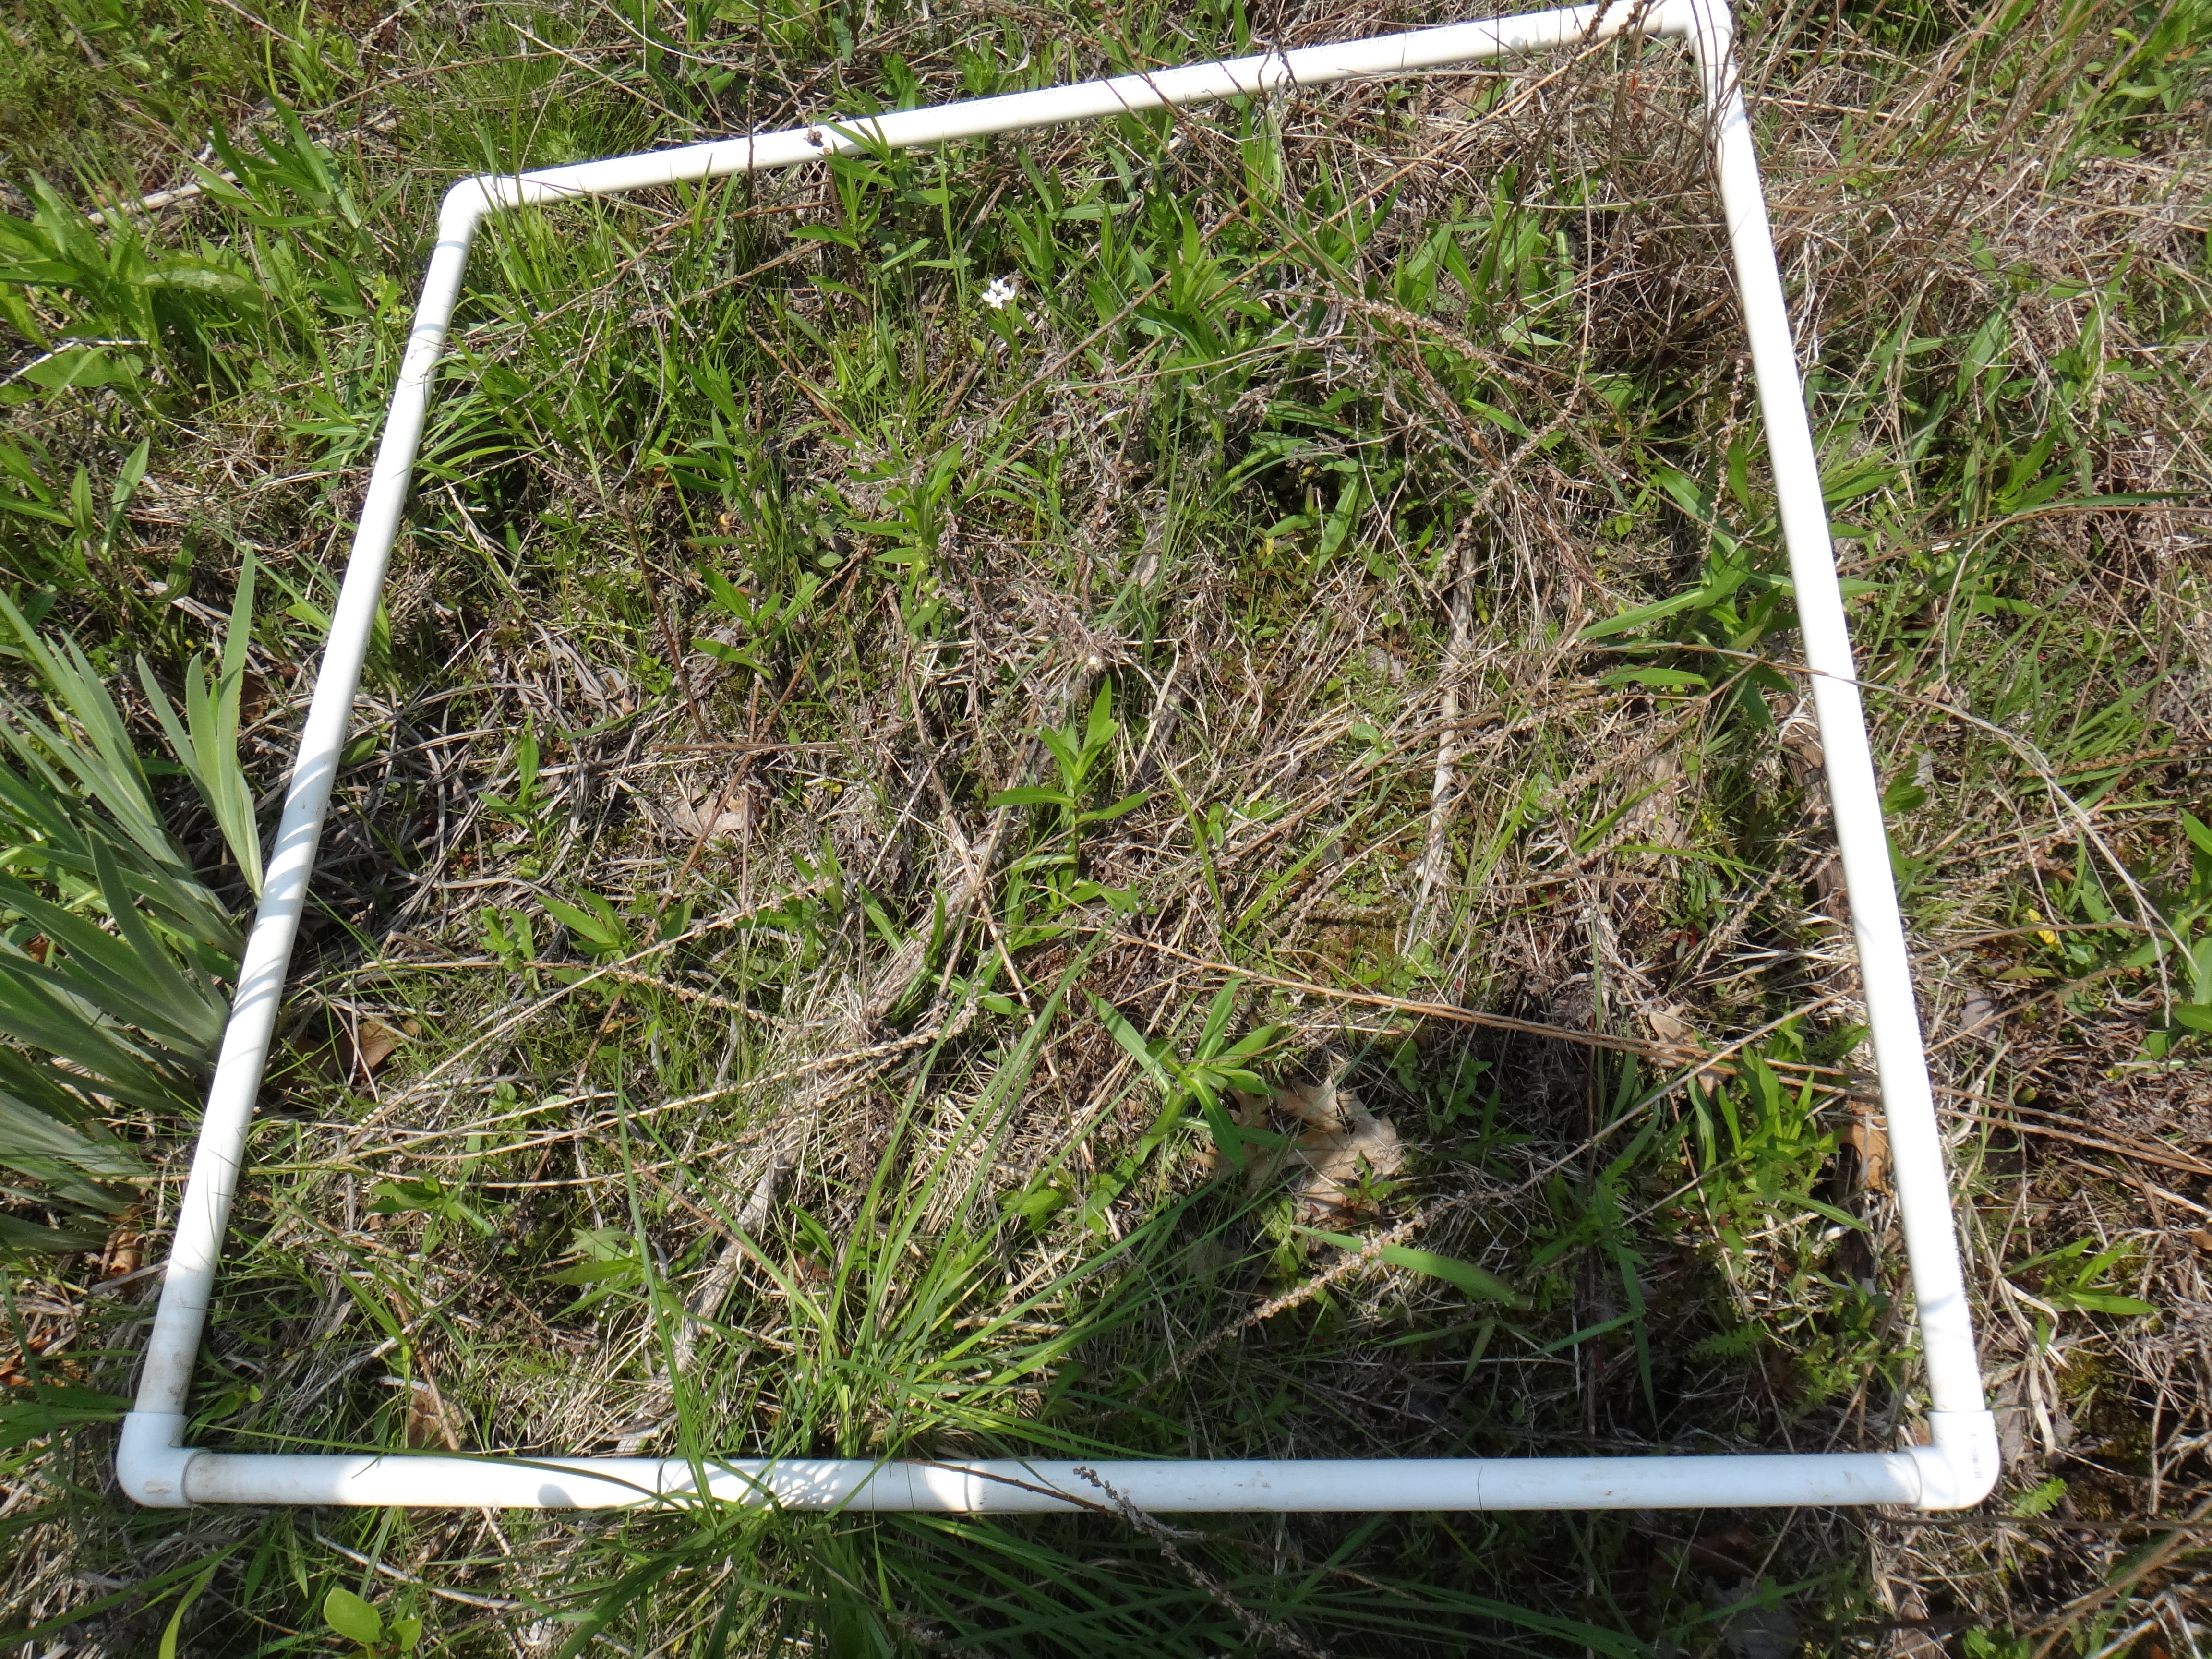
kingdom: Plantae
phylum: Tracheophyta
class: Liliopsida
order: Poales
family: Cyperaceae
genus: Carex
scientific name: Carex stricta
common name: Hummock sedge
